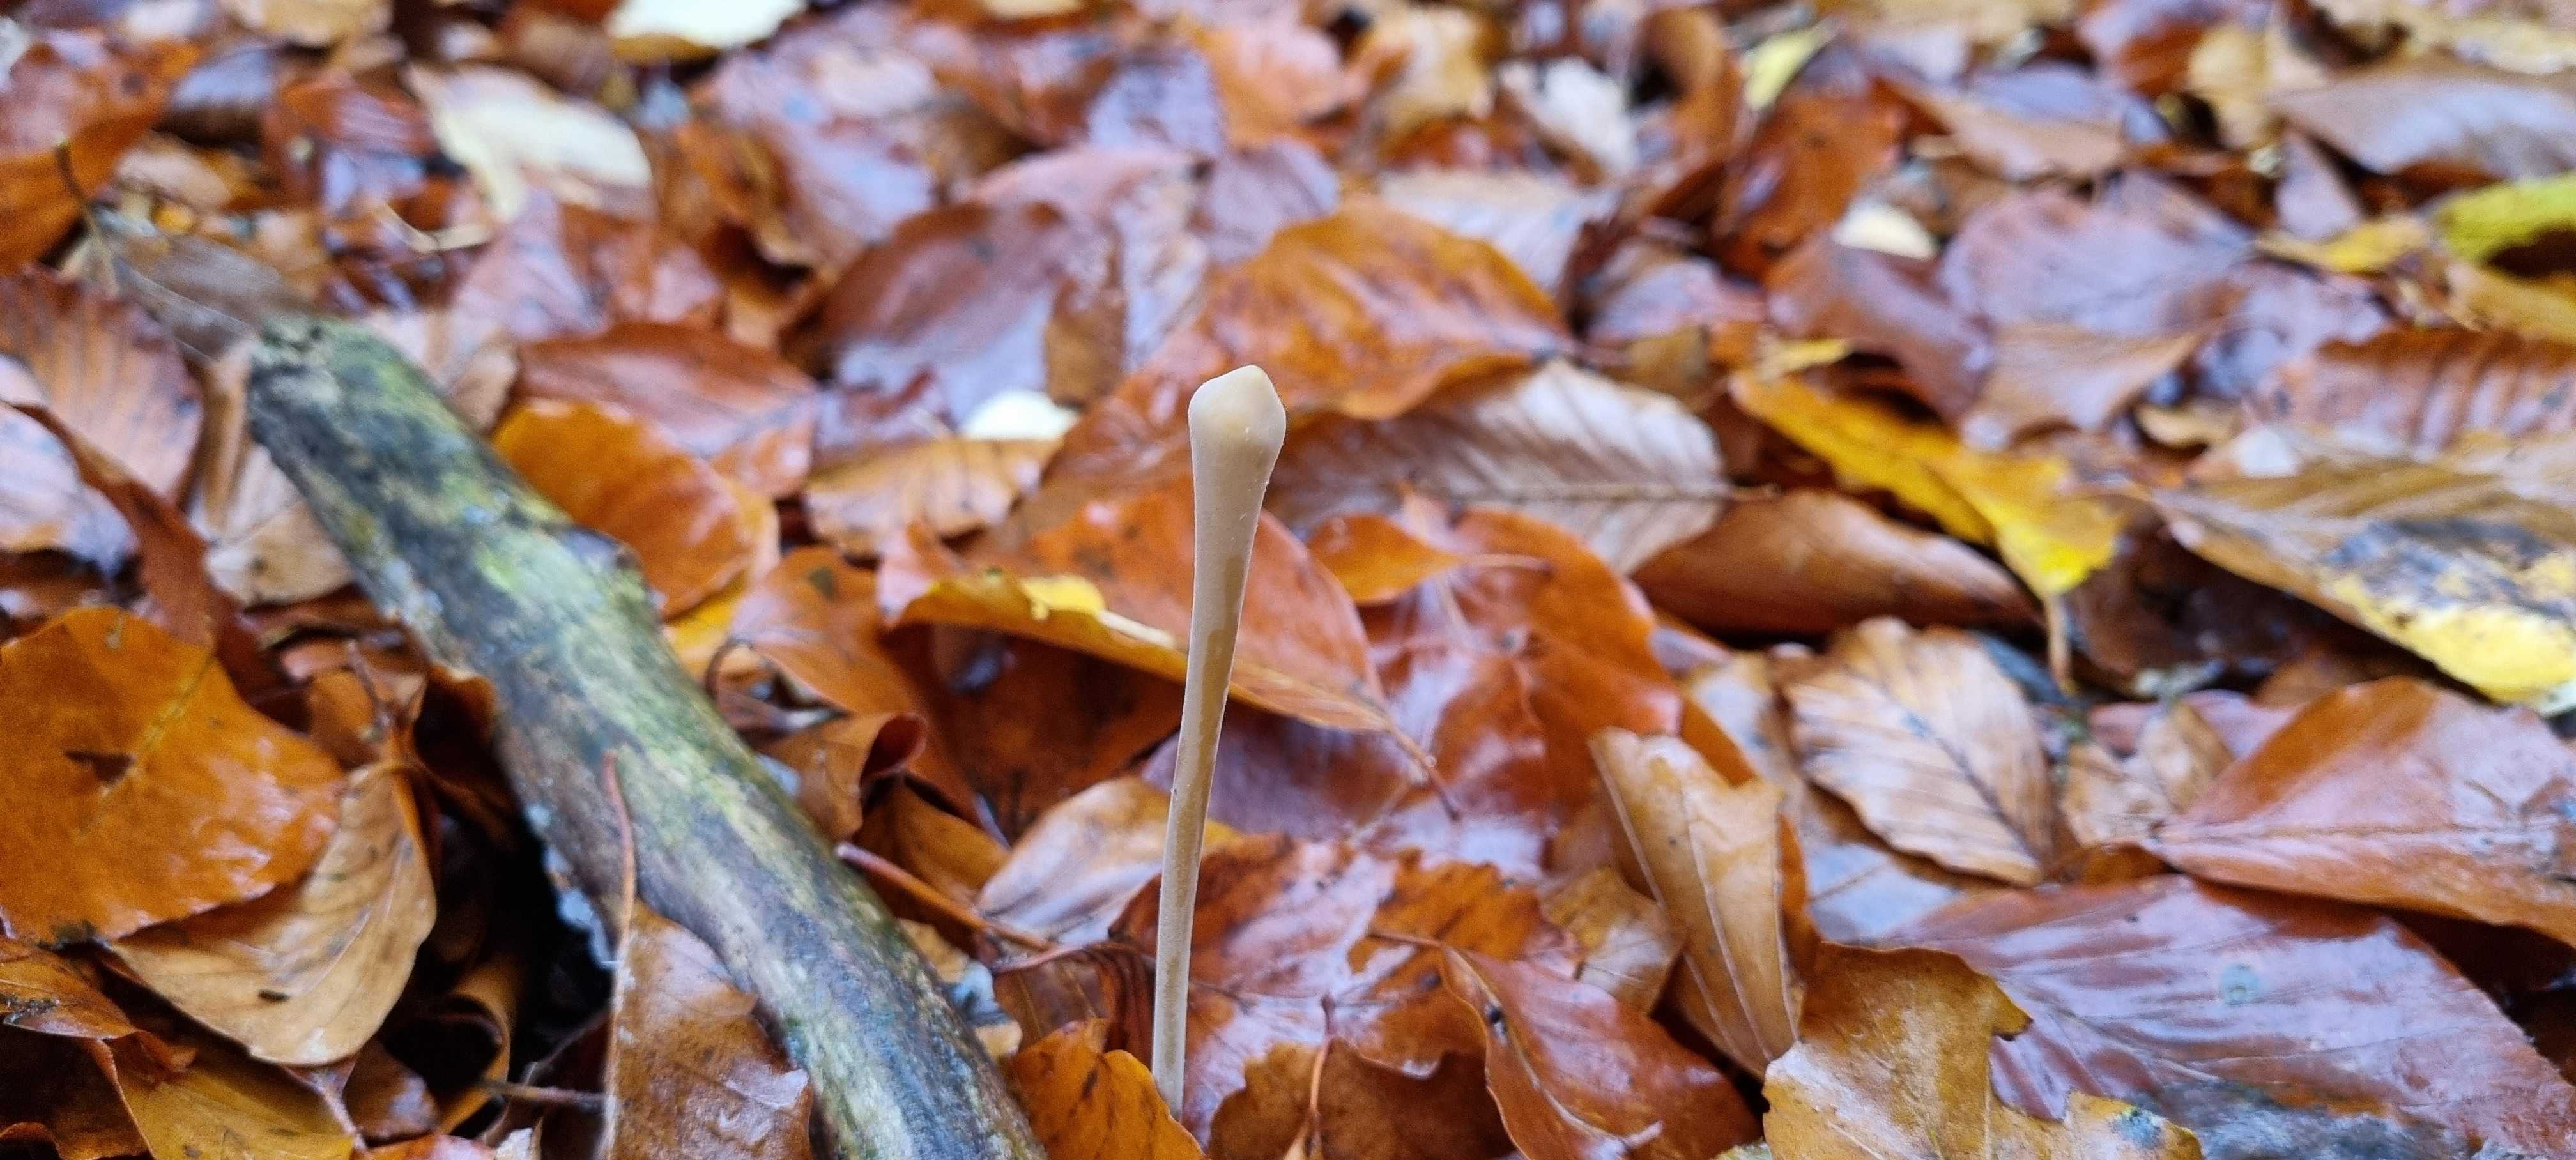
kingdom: Fungi
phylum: Basidiomycota
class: Agaricomycetes
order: Agaricales
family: Typhulaceae
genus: Typhula
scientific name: Typhula fistulosa
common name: pibet rørkølle
